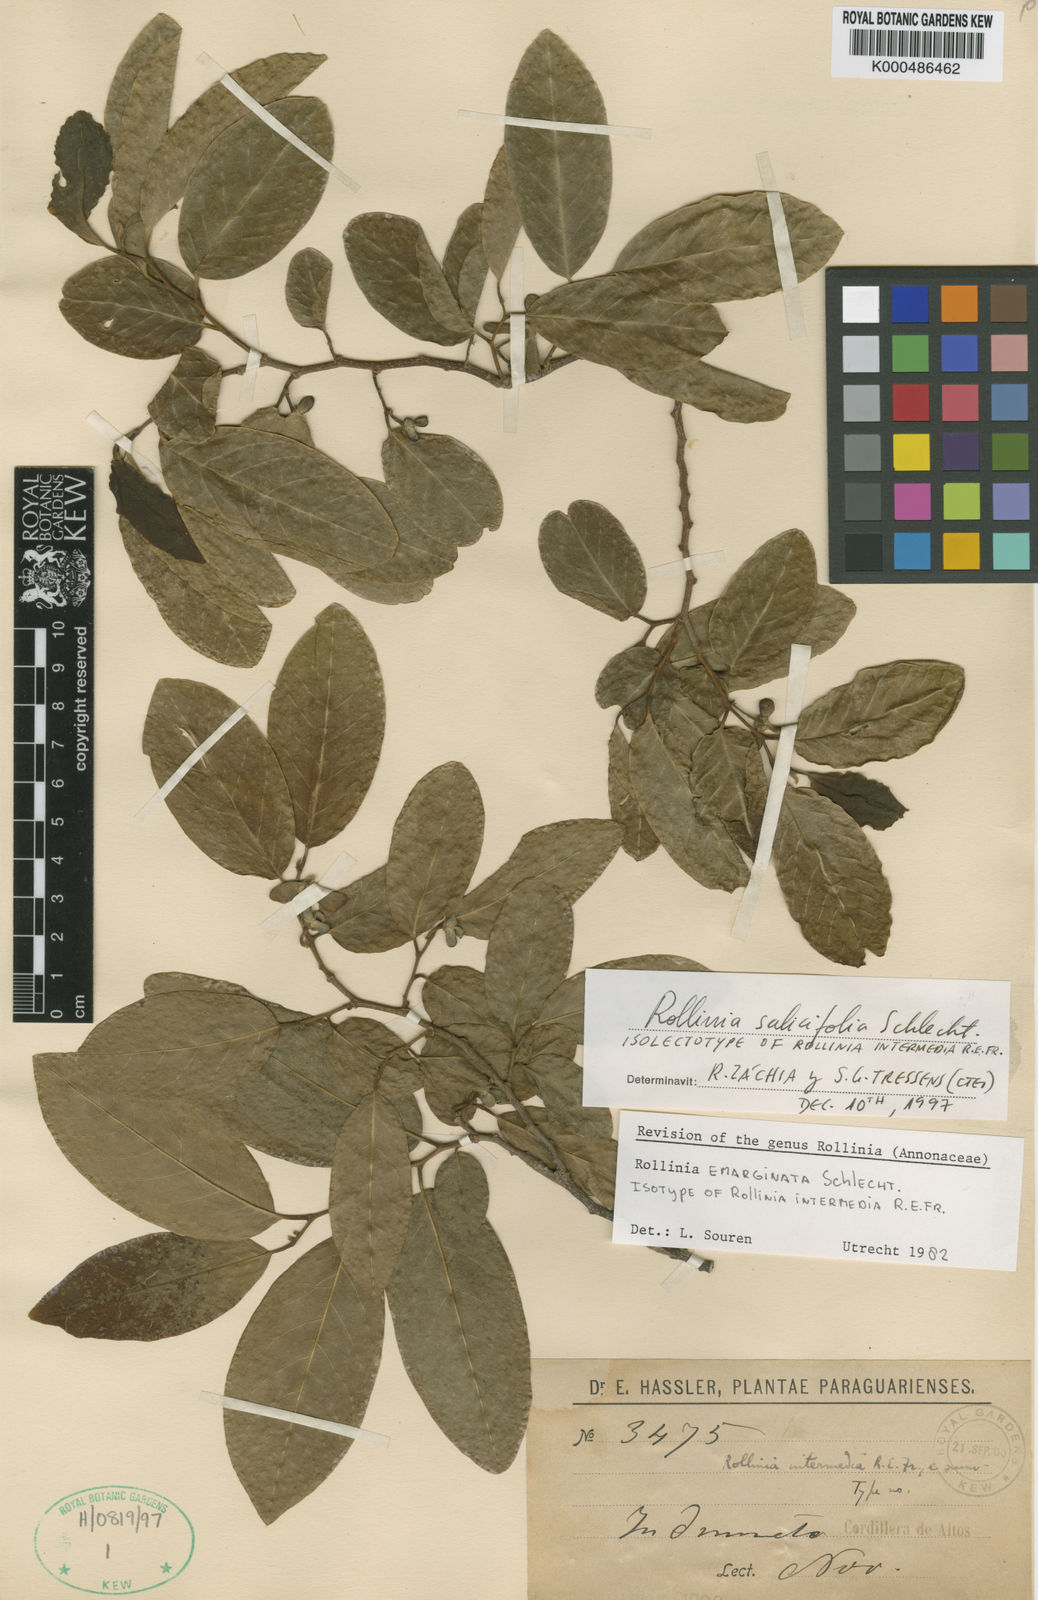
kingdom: Plantae
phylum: Tracheophyta
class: Magnoliopsida
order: Magnoliales
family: Annonaceae
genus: Annona
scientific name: Annona neosalicifolia
